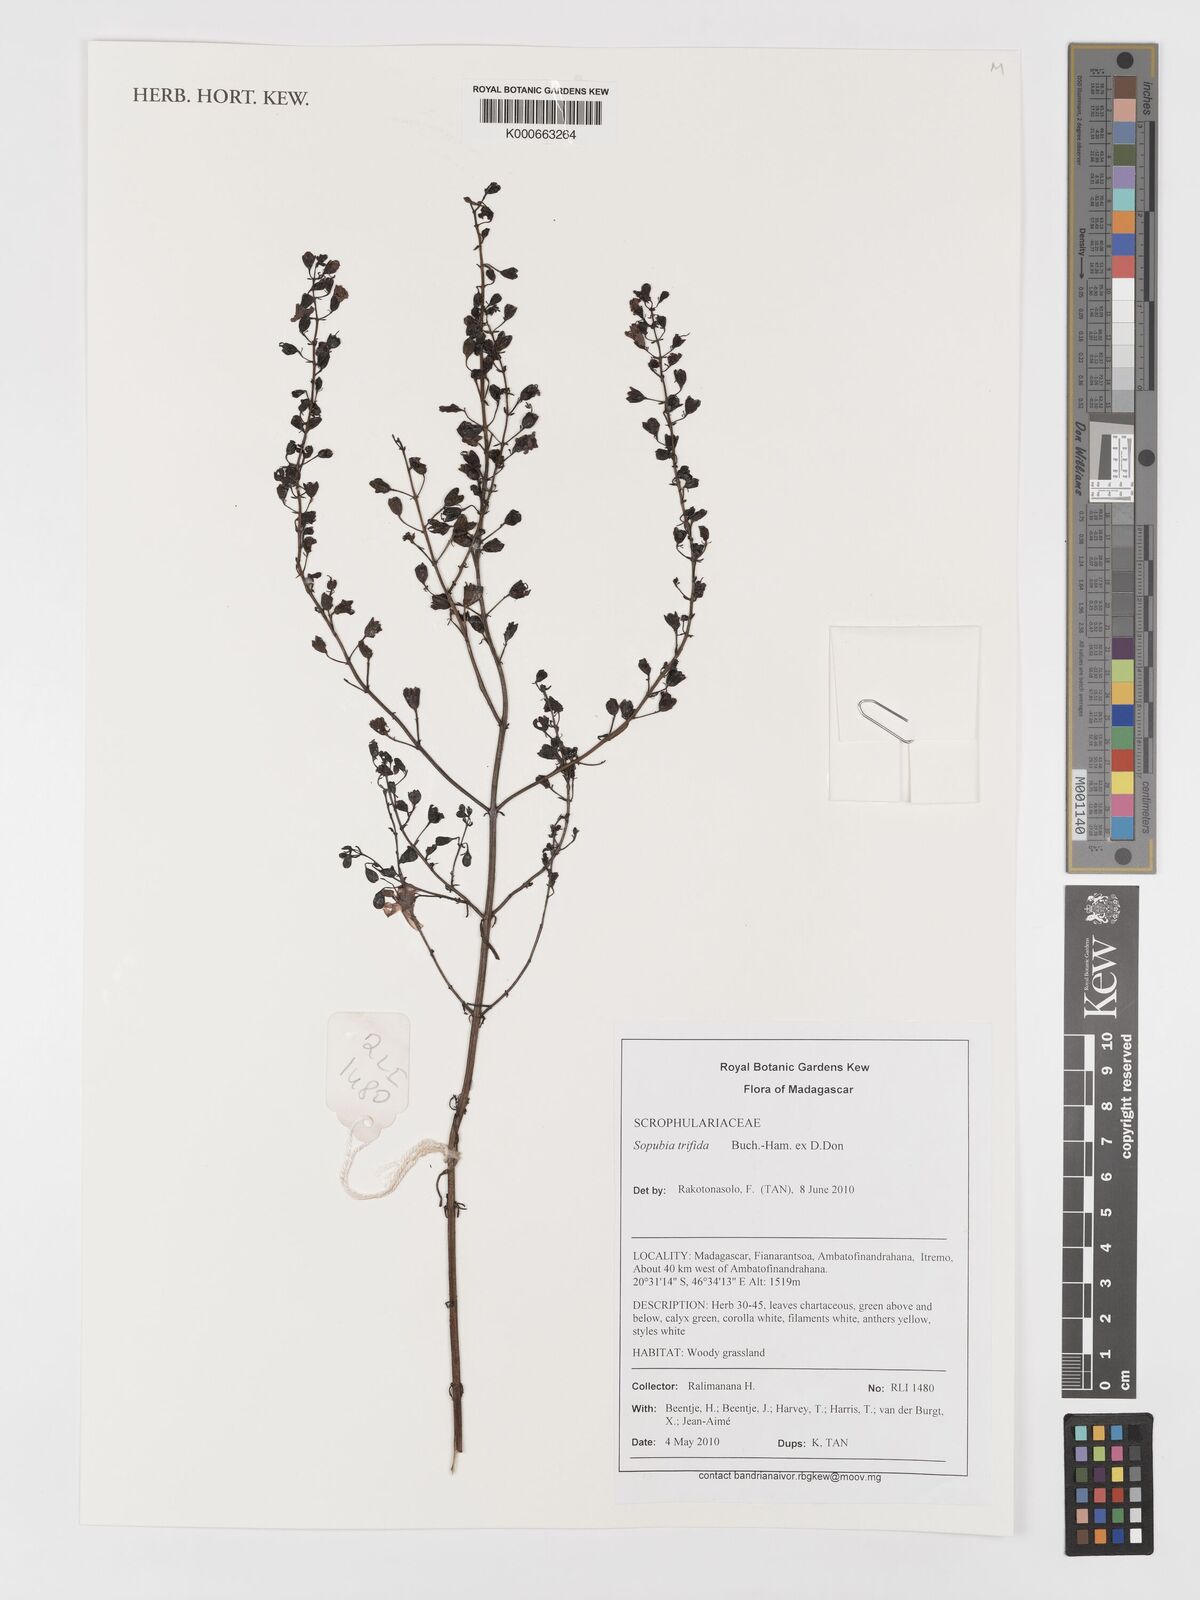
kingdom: Plantae
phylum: Tracheophyta
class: Magnoliopsida
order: Lamiales
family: Orobanchaceae
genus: Sopubia
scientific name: Sopubia trifida
